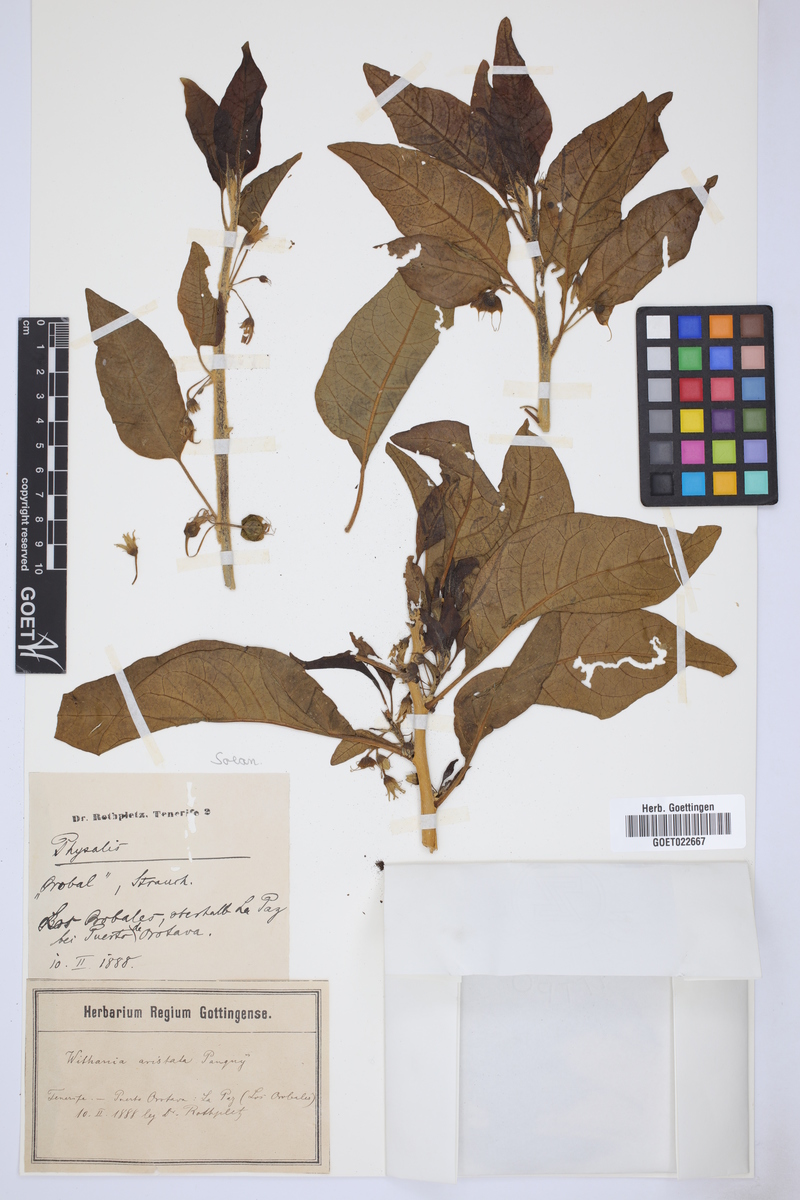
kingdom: Plantae
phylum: Tracheophyta
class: Magnoliopsida
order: Solanales
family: Solanaceae
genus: Withania
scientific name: Withania aristata
